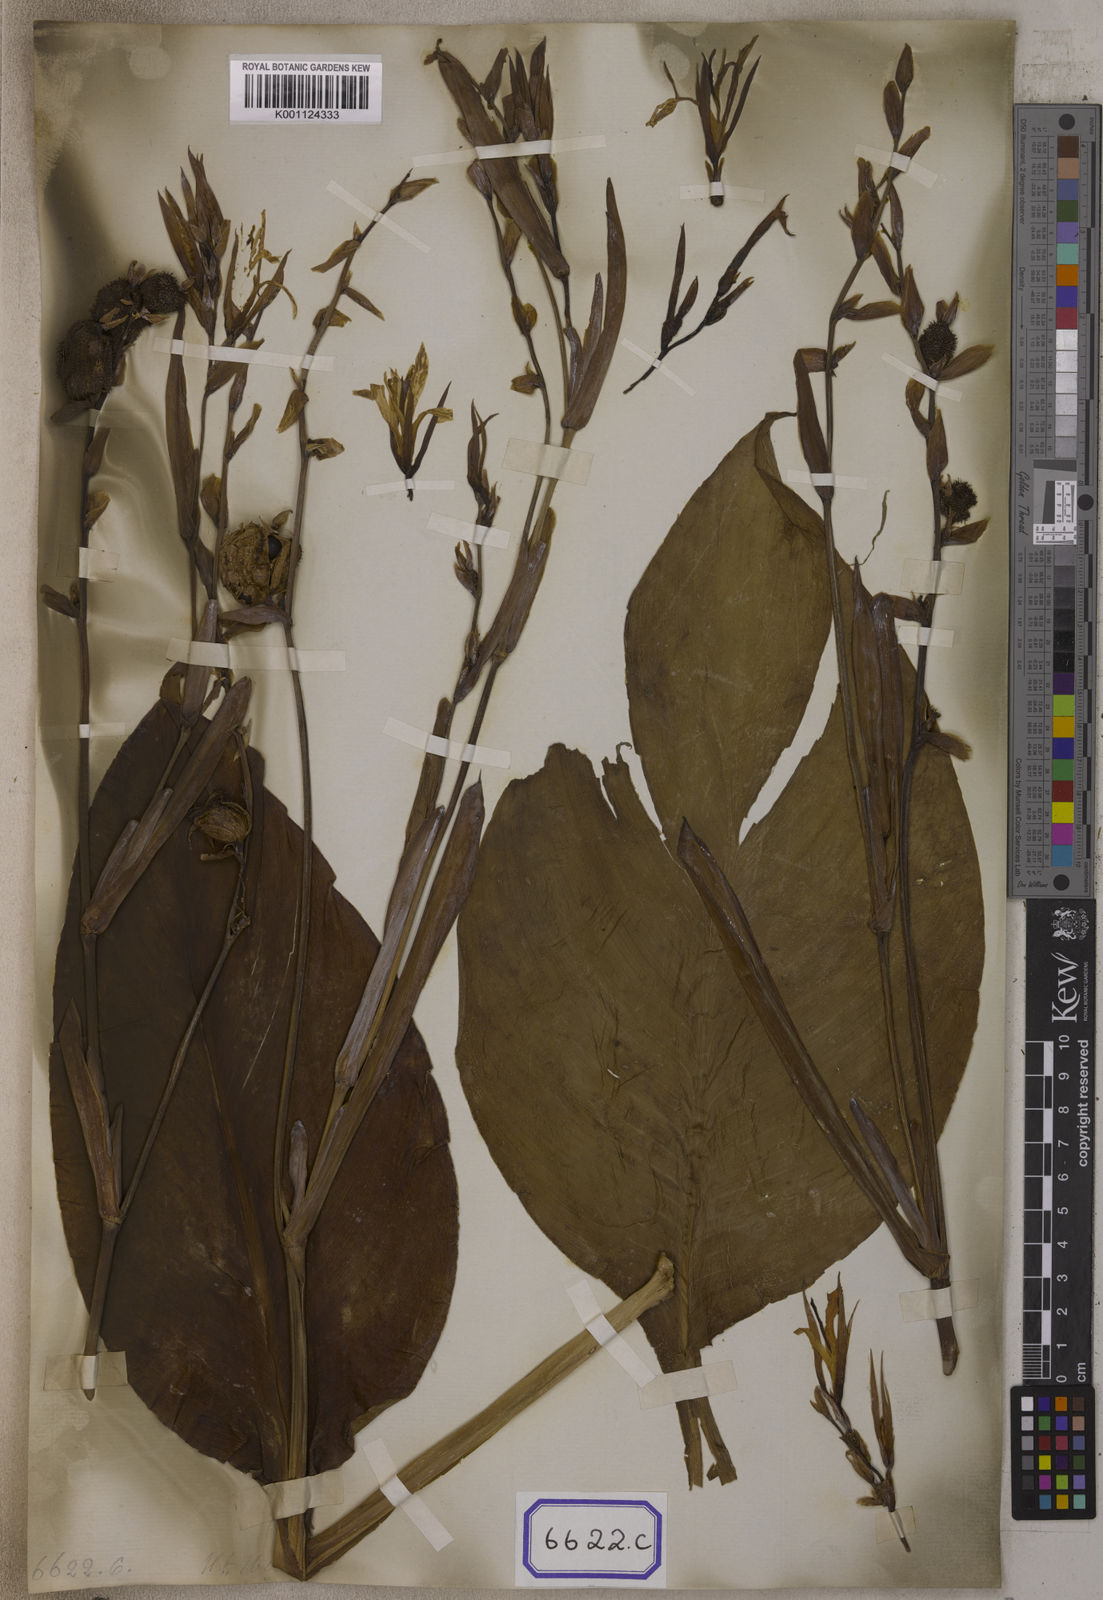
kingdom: Plantae
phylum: Tracheophyta
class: Liliopsida
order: Zingiberales
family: Cannaceae
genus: Canna
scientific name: Canna
